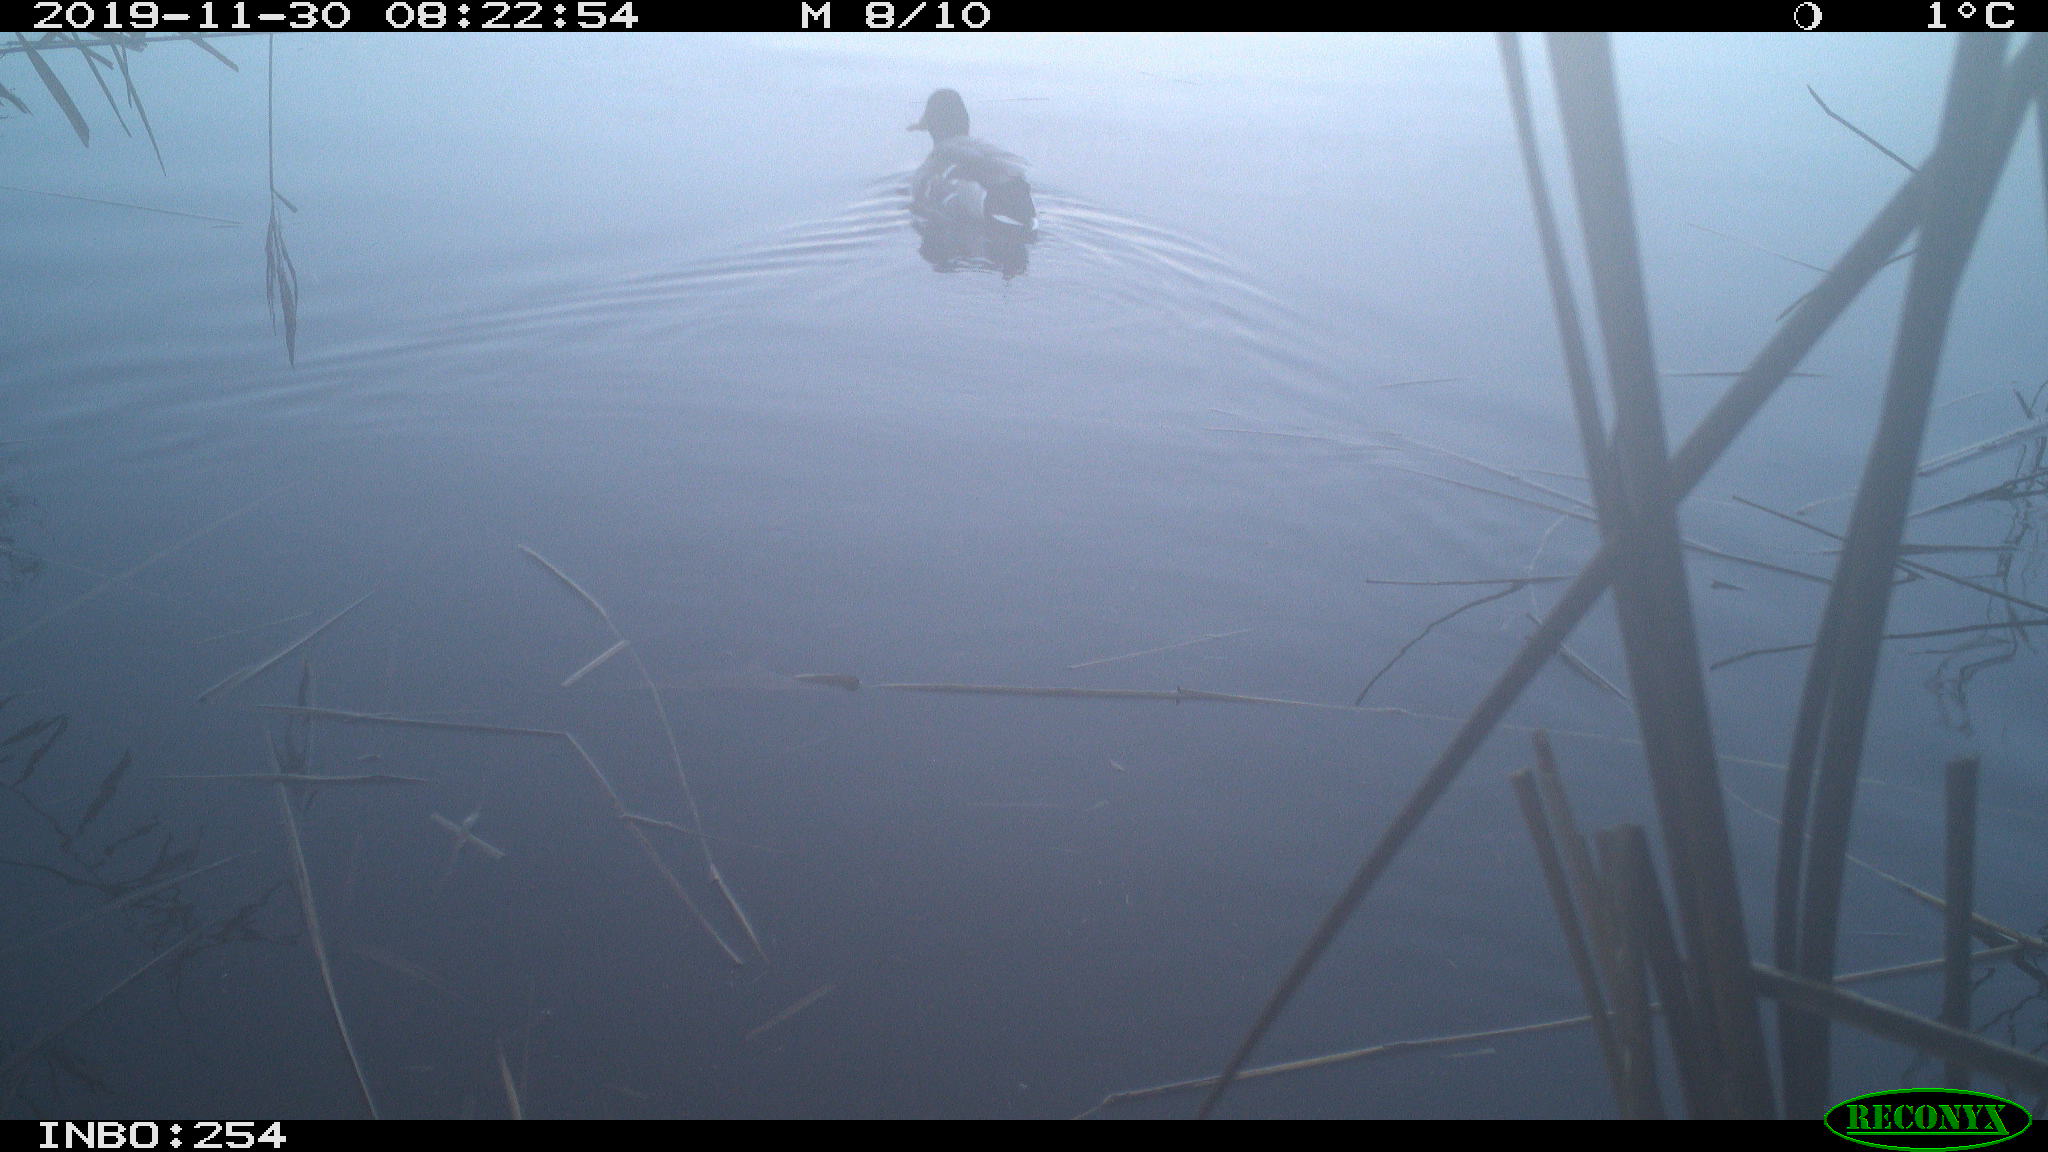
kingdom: Animalia
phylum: Chordata
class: Aves
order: Anseriformes
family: Anatidae
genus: Anas
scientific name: Anas platyrhynchos
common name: Mallard
